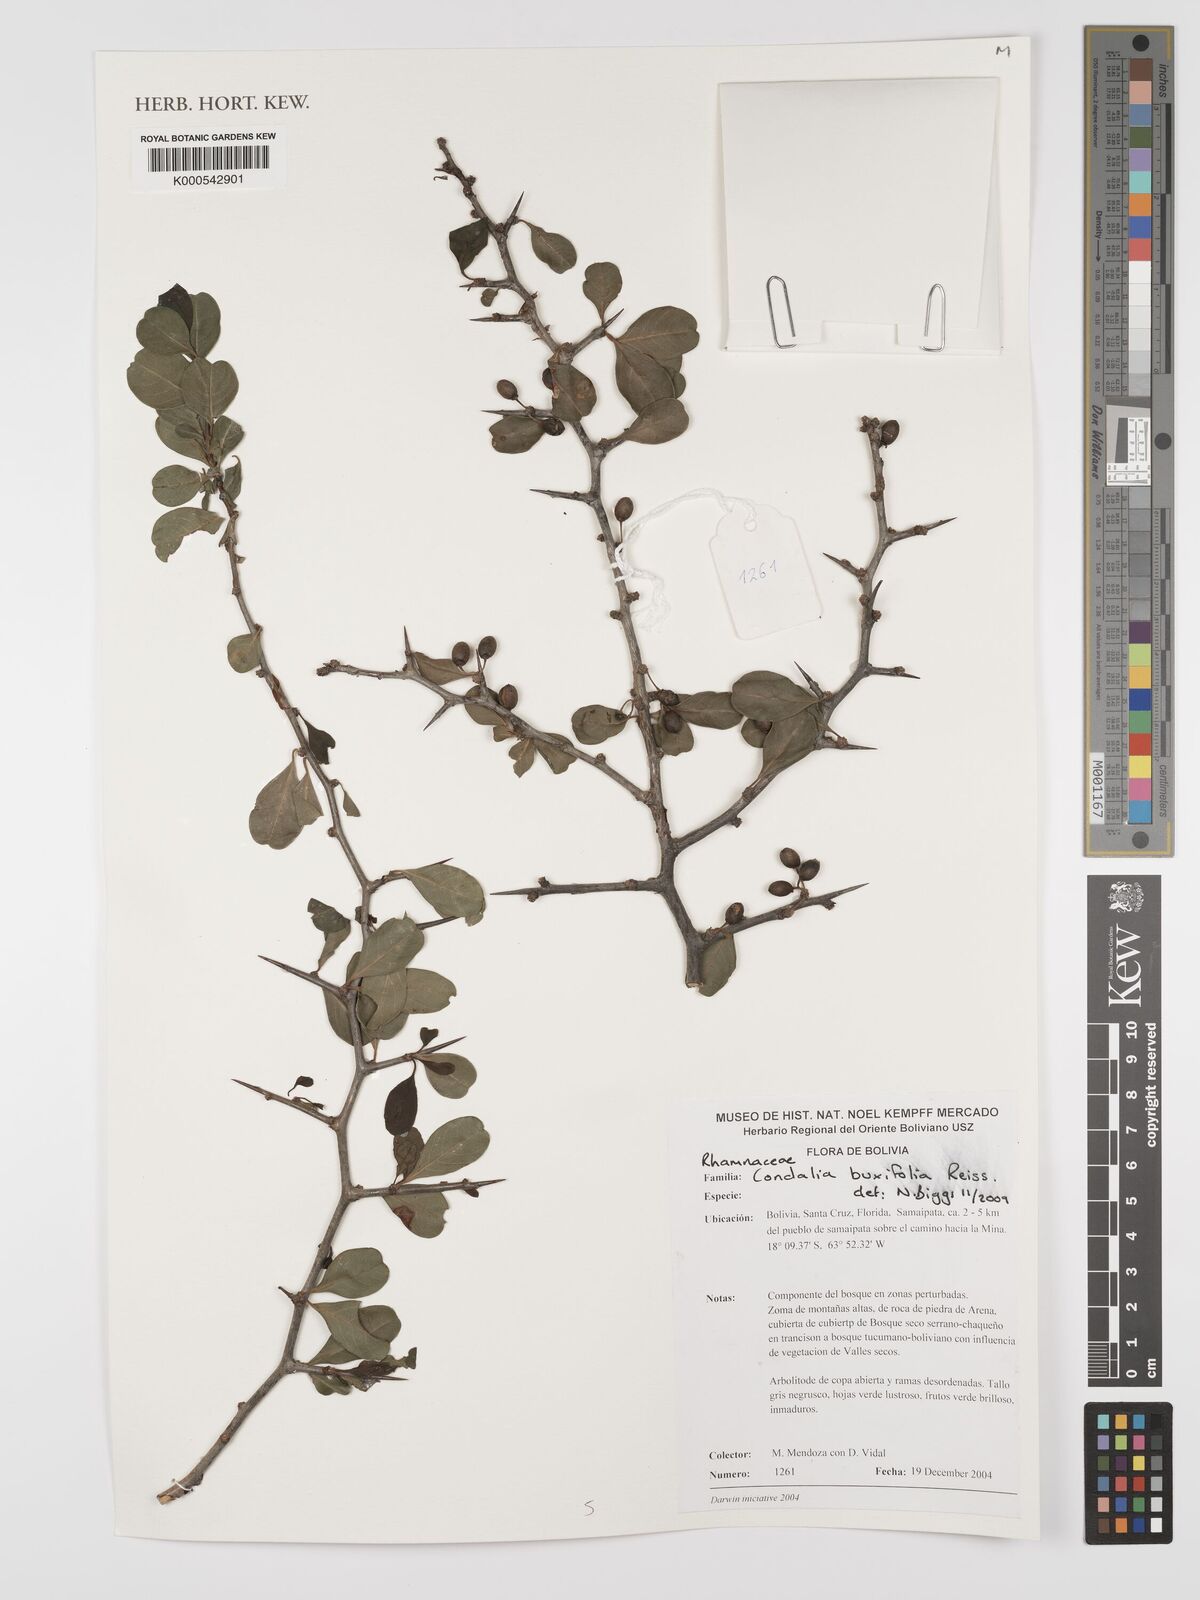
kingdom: Plantae
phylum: Tracheophyta
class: Magnoliopsida
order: Rosales
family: Rhamnaceae
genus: Condalia
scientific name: Condalia buxifolia
